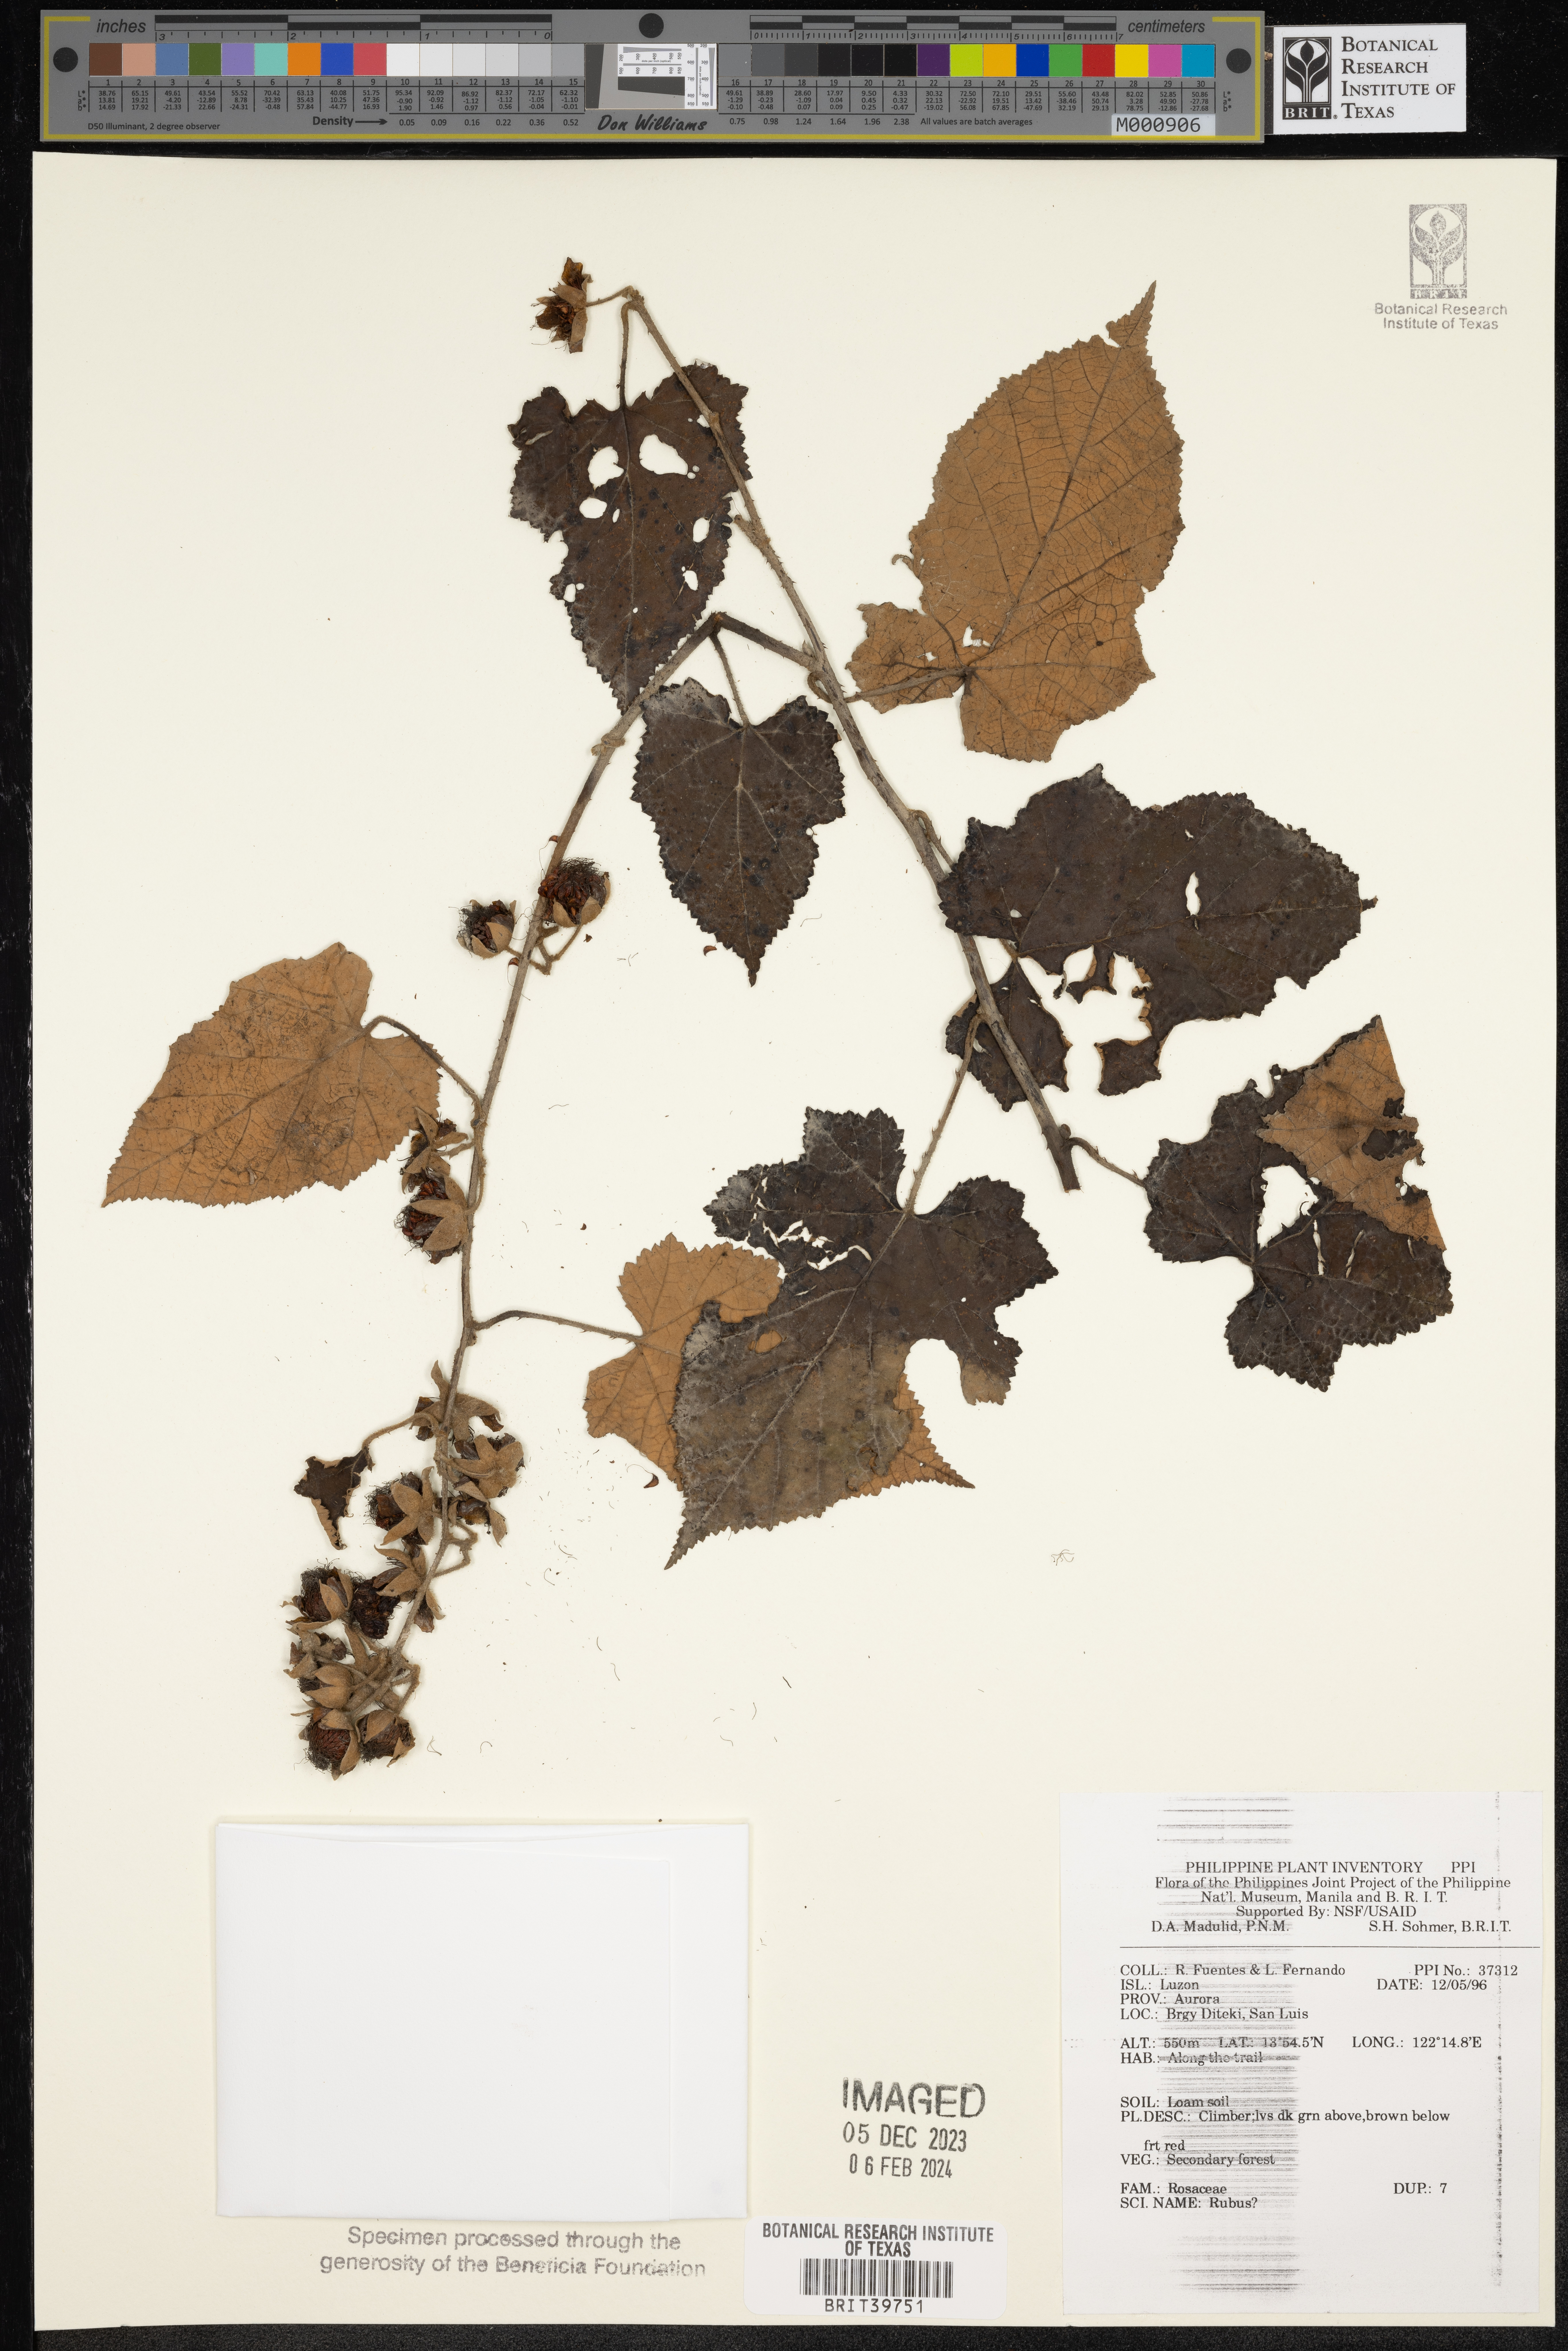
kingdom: Plantae
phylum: Tracheophyta
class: Magnoliopsida
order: Rosales
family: Rosaceae
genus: Rubus
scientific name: Rubus
